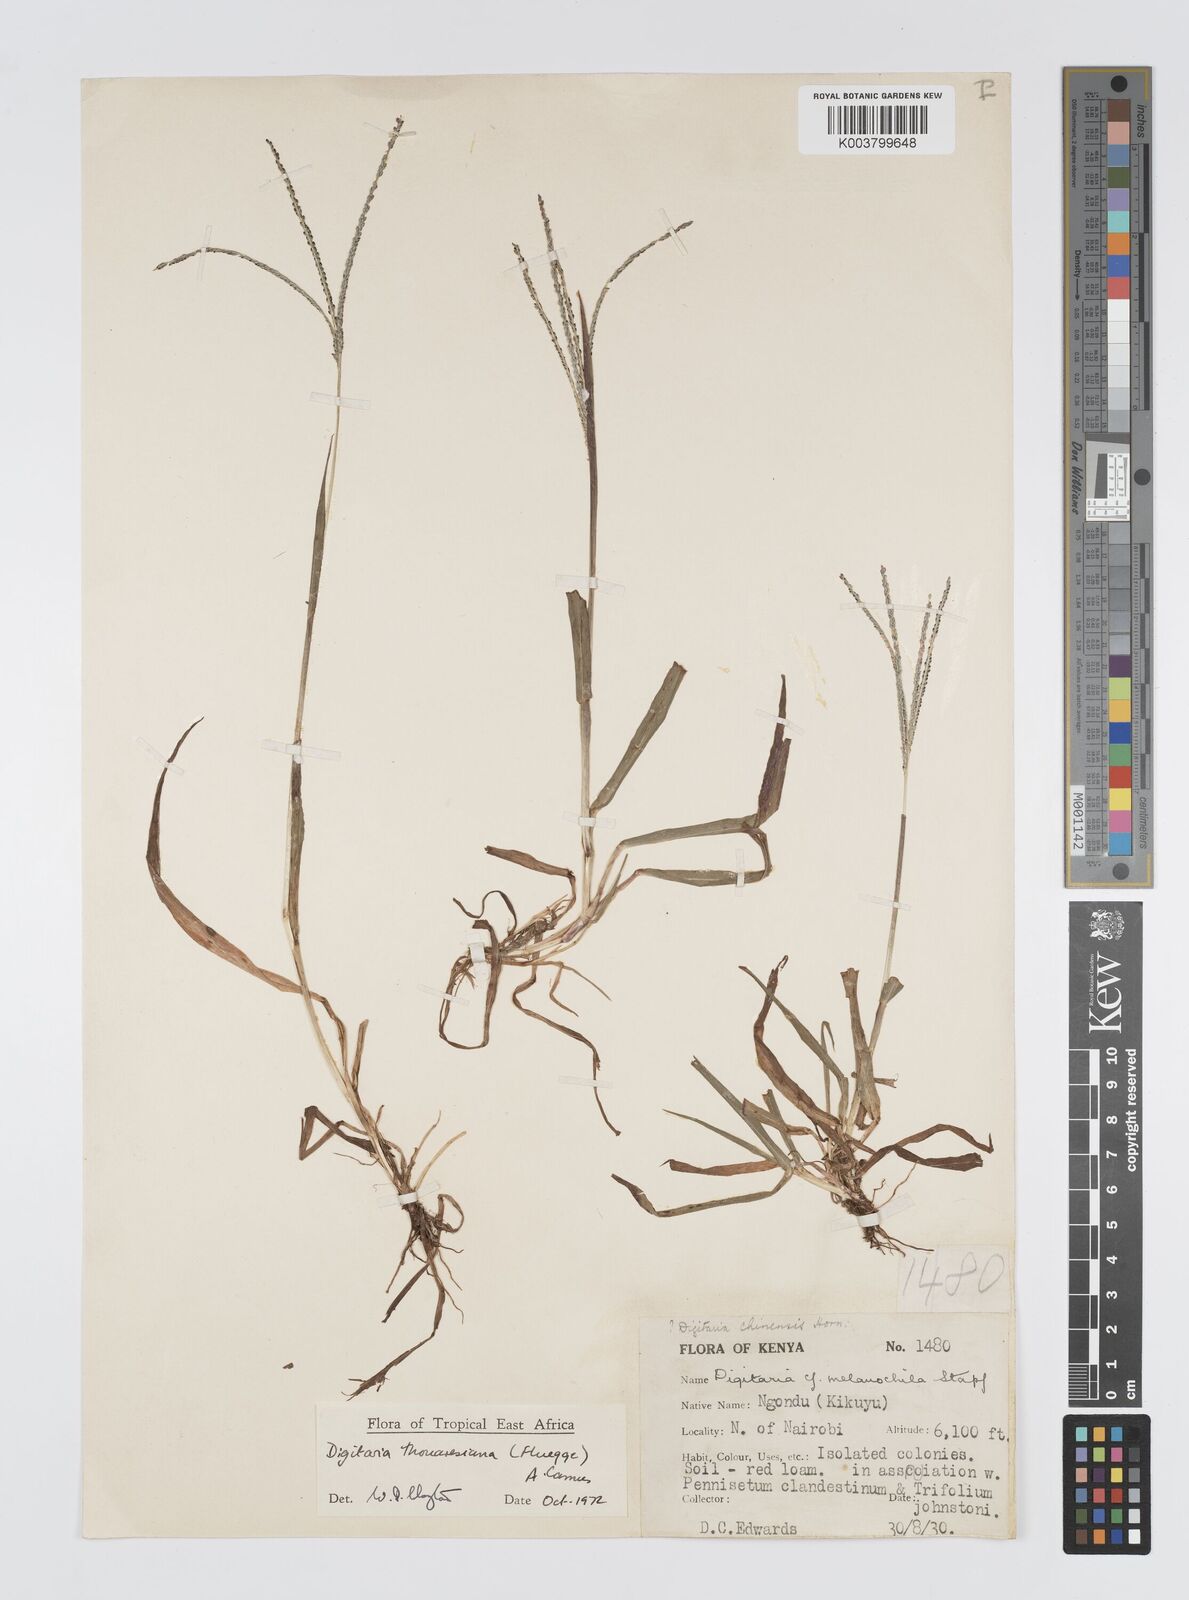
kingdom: Plantae
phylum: Tracheophyta
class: Liliopsida
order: Poales
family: Poaceae
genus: Digitaria
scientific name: Digitaria thouarsiana
